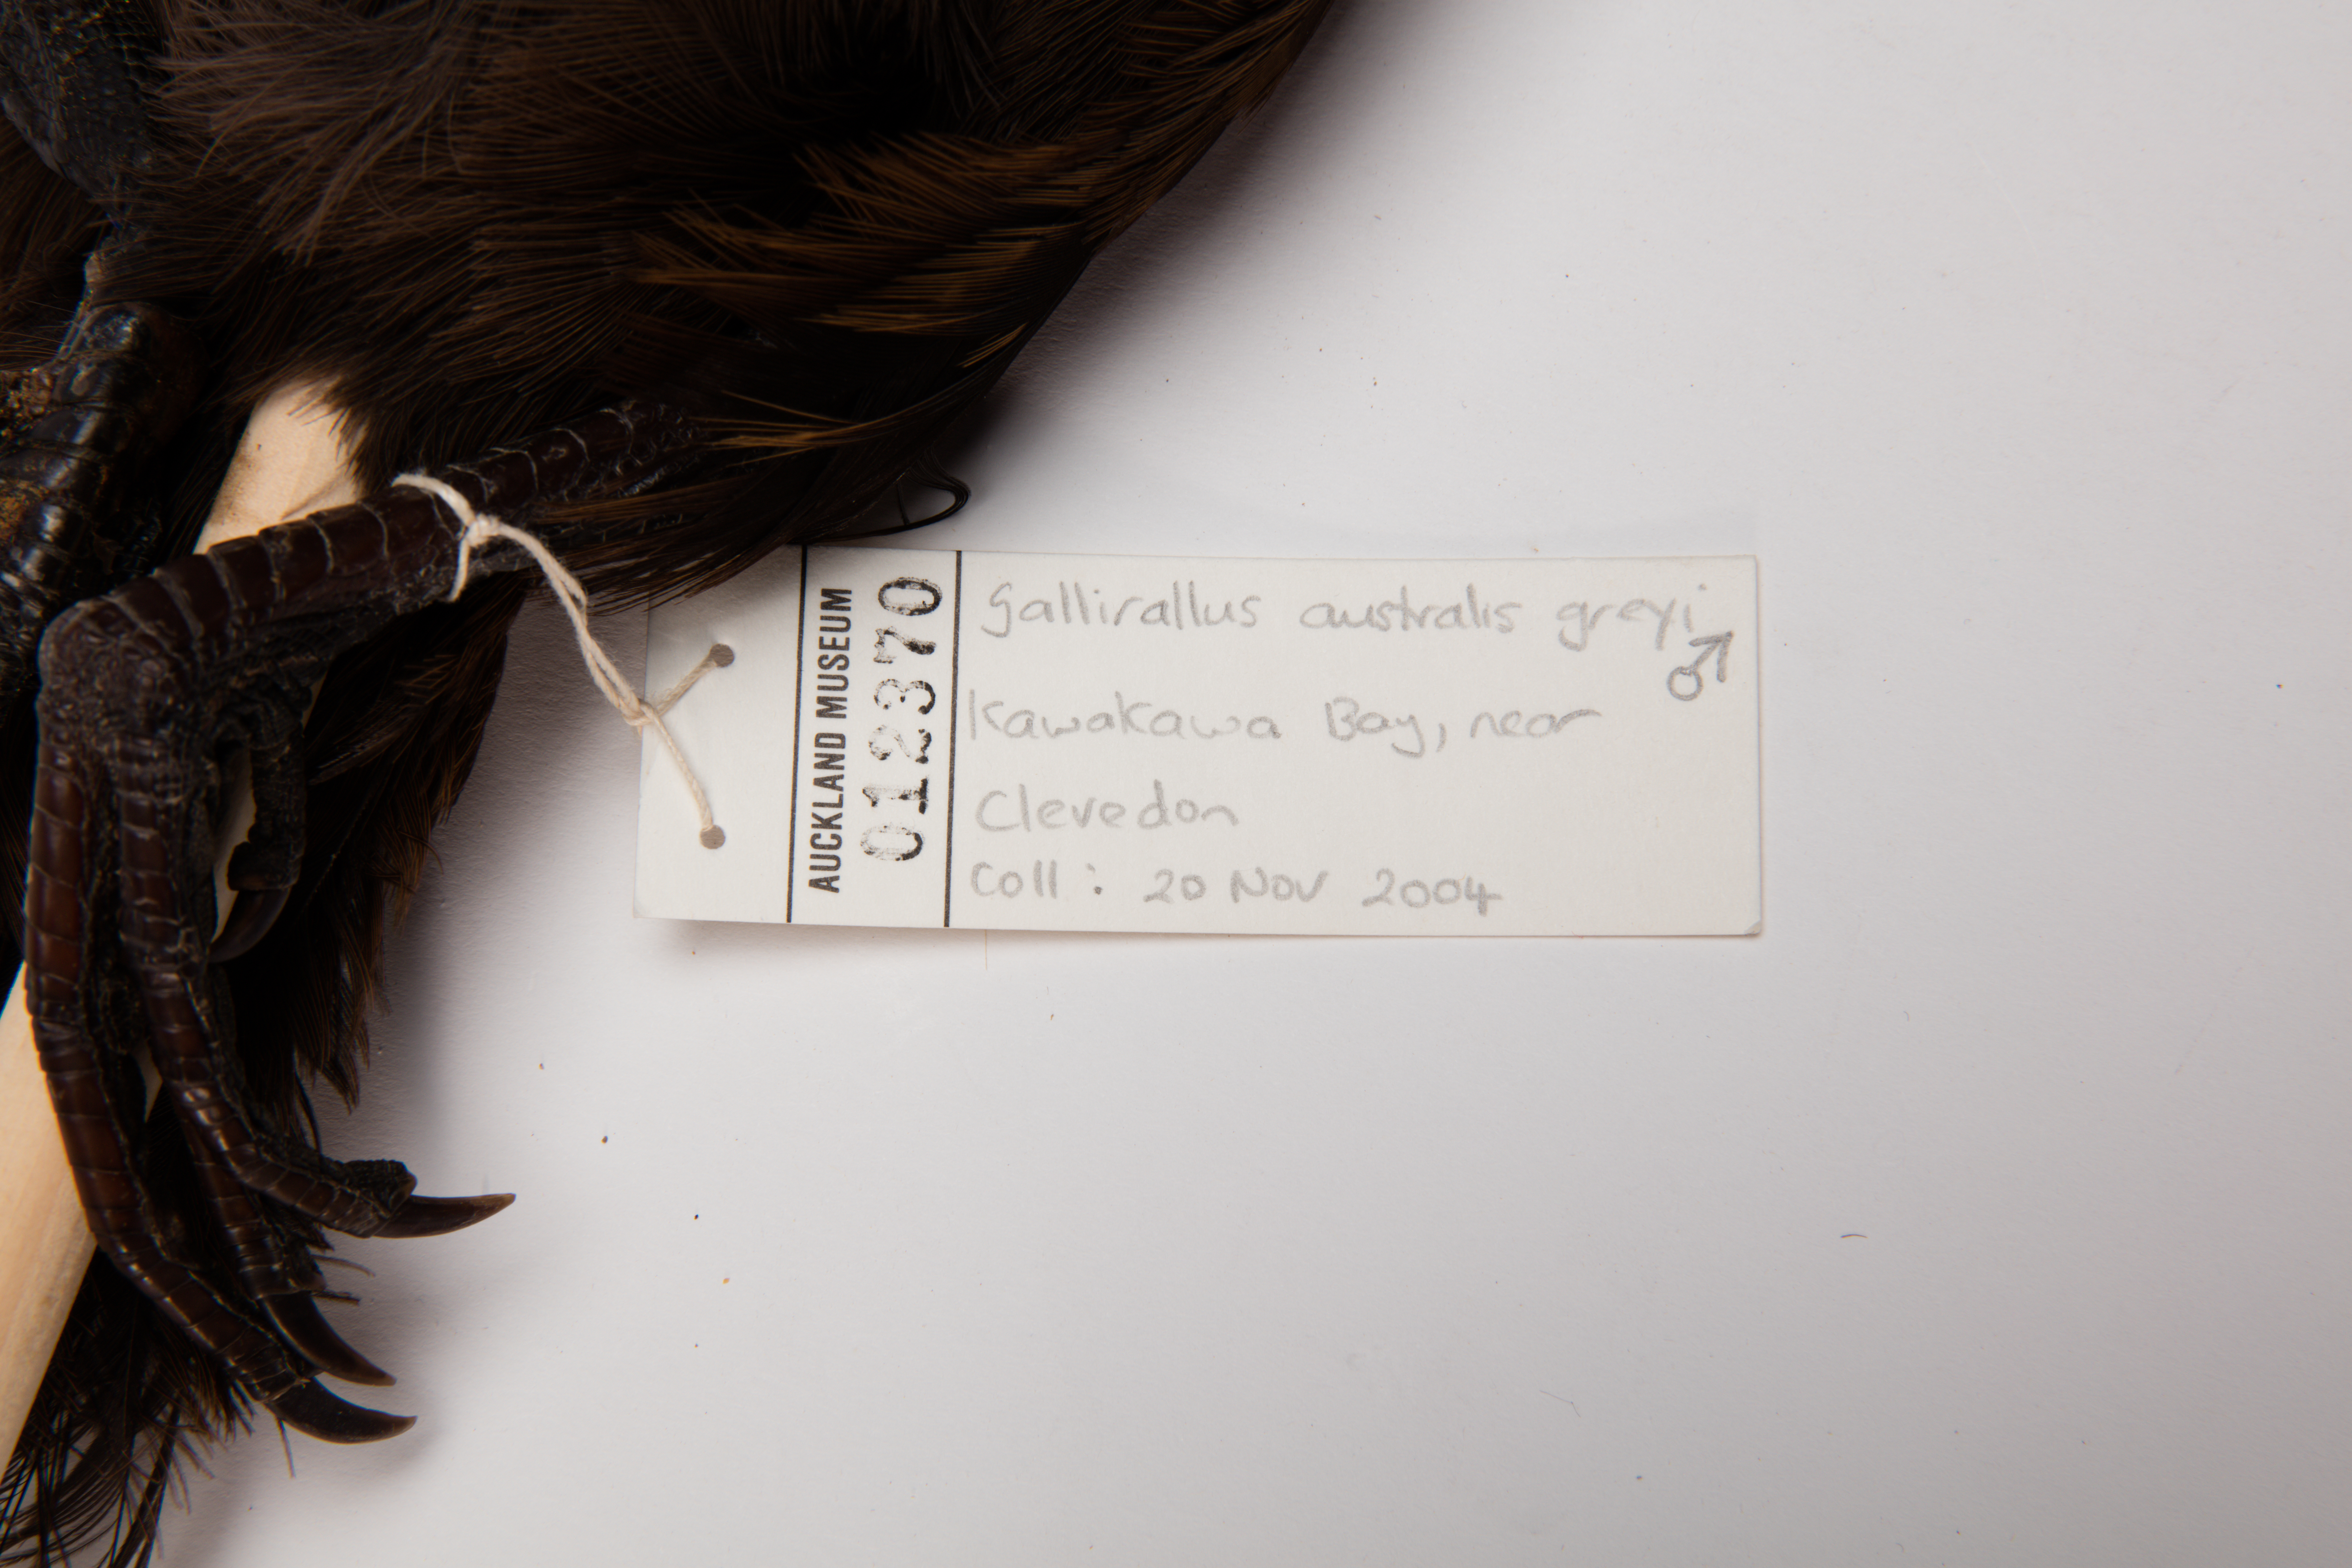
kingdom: Animalia
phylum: Chordata
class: Aves
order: Gruiformes
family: Rallidae
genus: Gallirallus
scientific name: Gallirallus australis
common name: Weka
